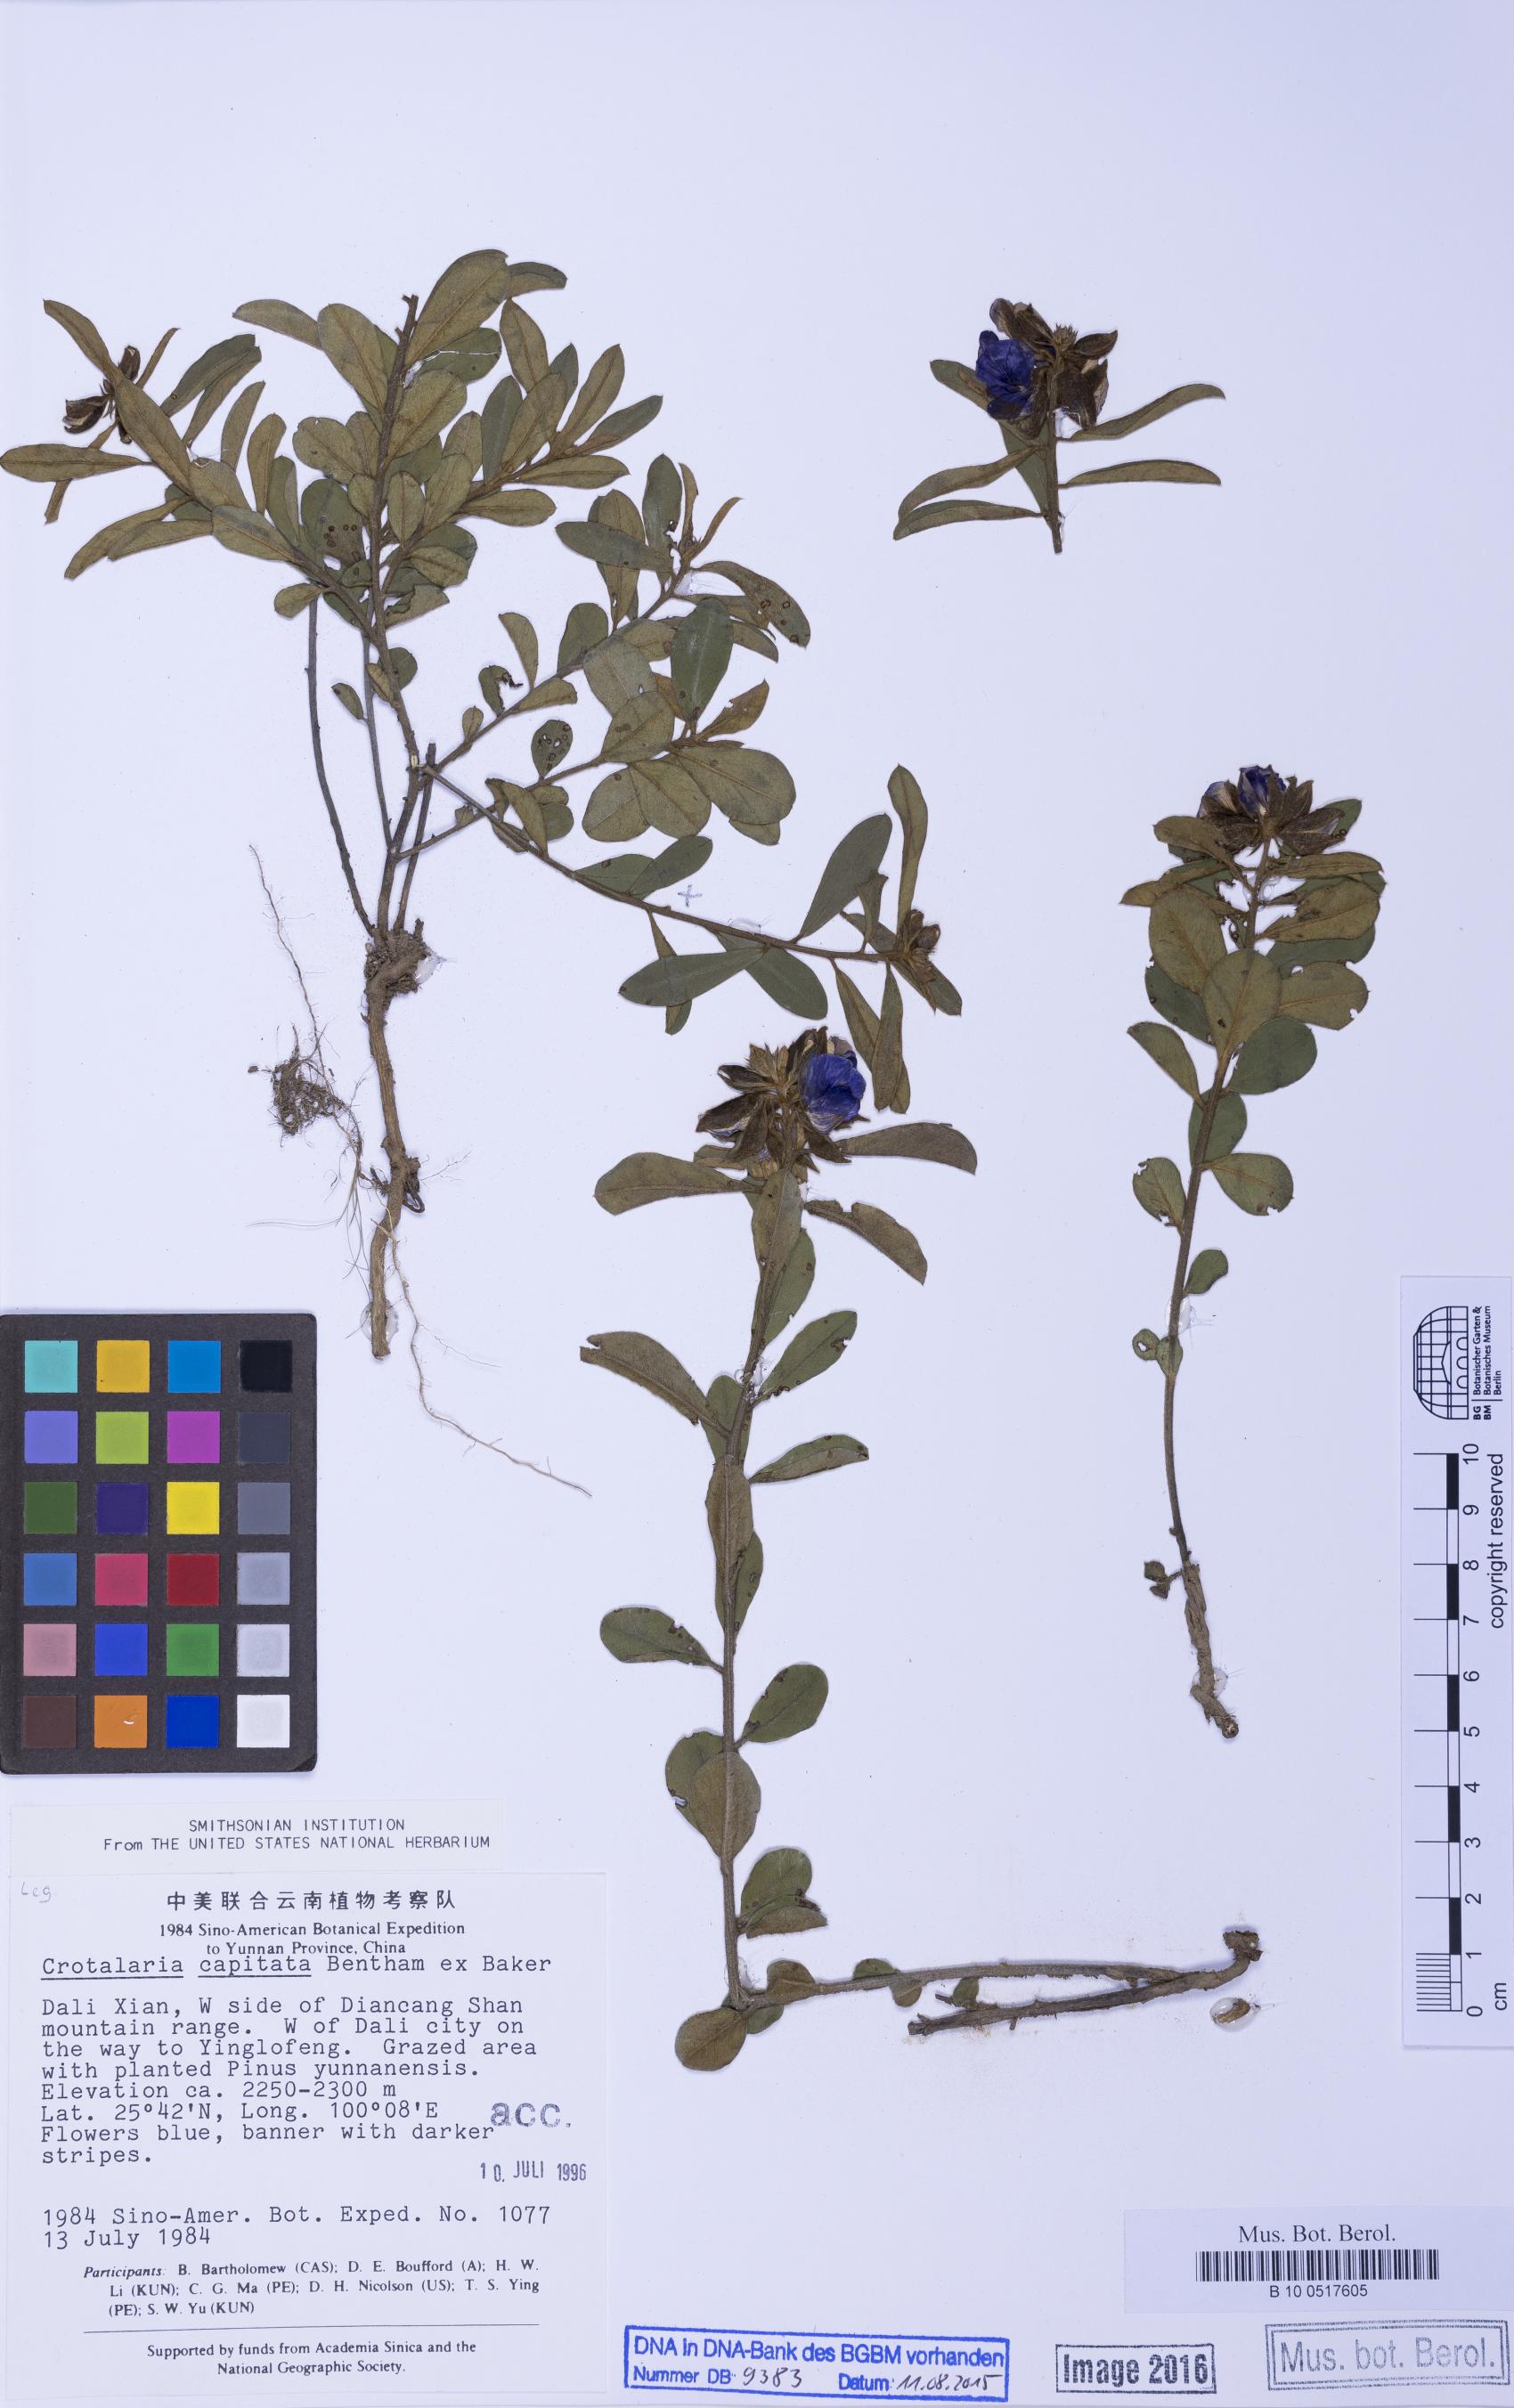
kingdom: Plantae
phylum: Tracheophyta
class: Magnoliopsida
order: Fabales
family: Fabaceae
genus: Crotalaria
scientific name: Crotalaria mairei
